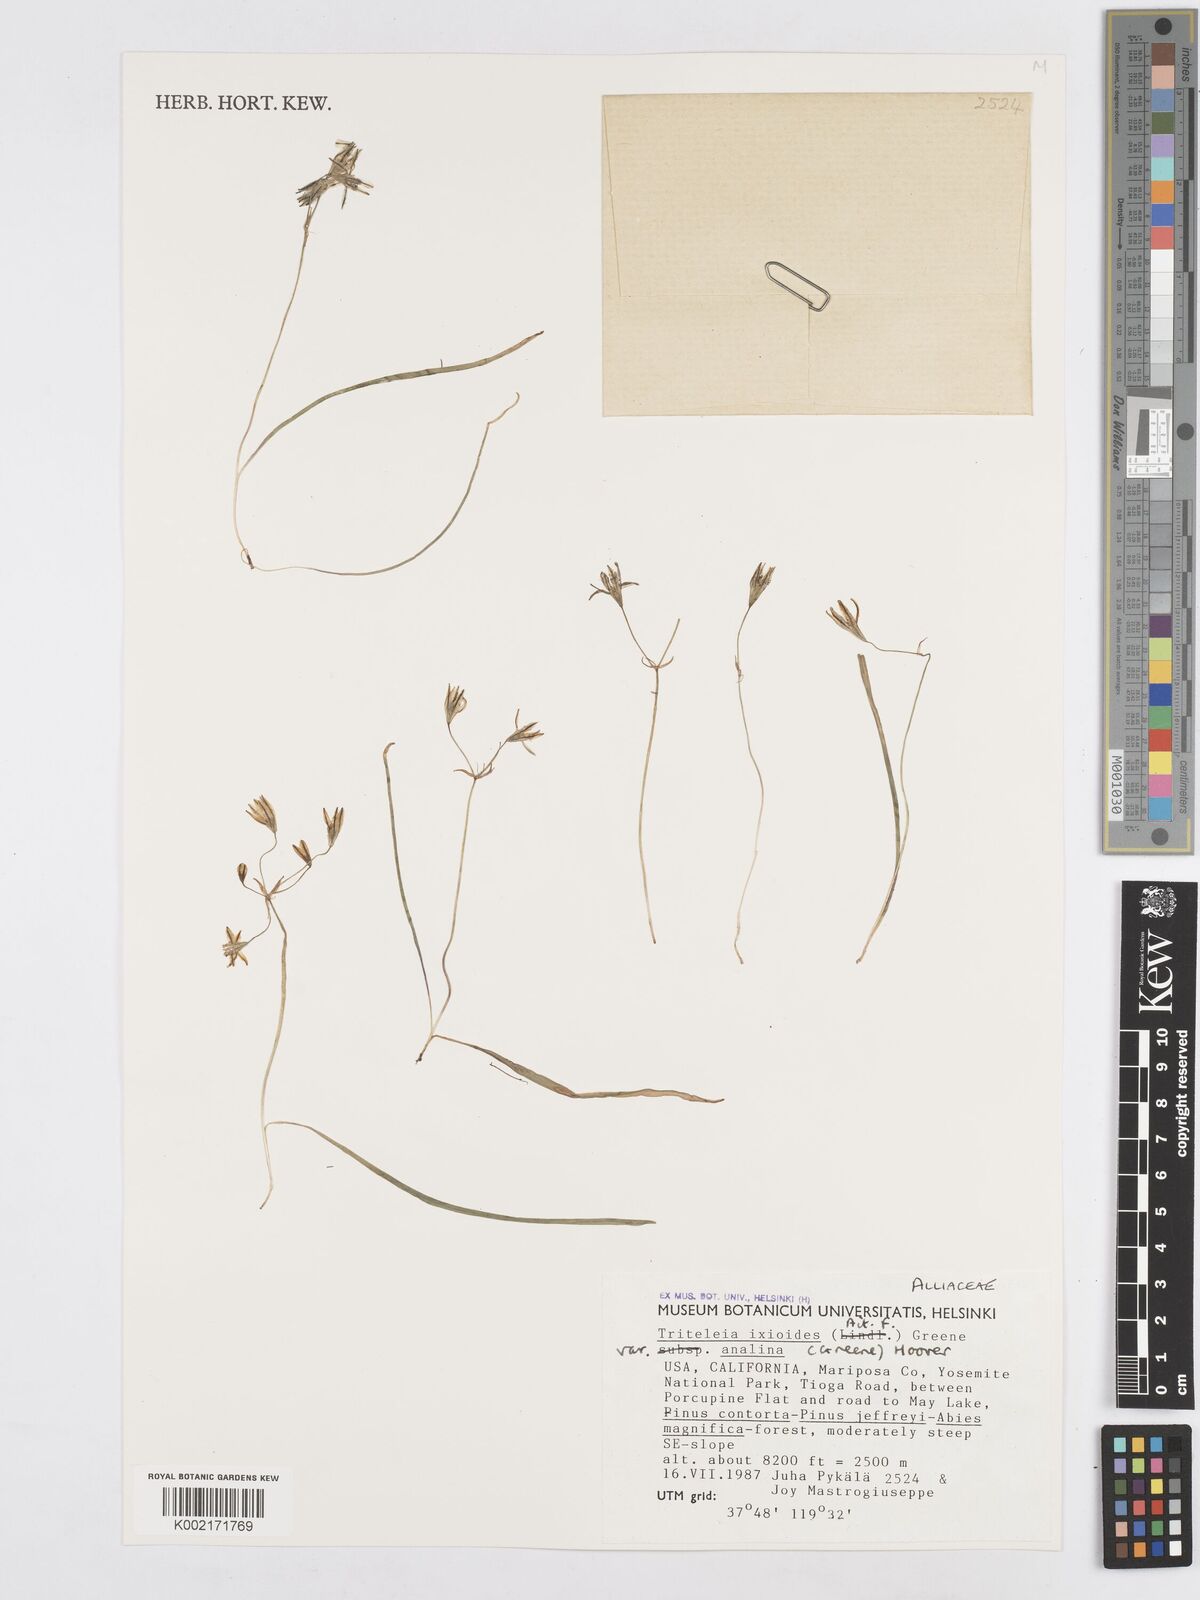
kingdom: Plantae
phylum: Tracheophyta
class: Liliopsida
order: Asparagales
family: Asparagaceae
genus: Triteleia
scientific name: Triteleia ixioides
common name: Yellow-brodiaea
